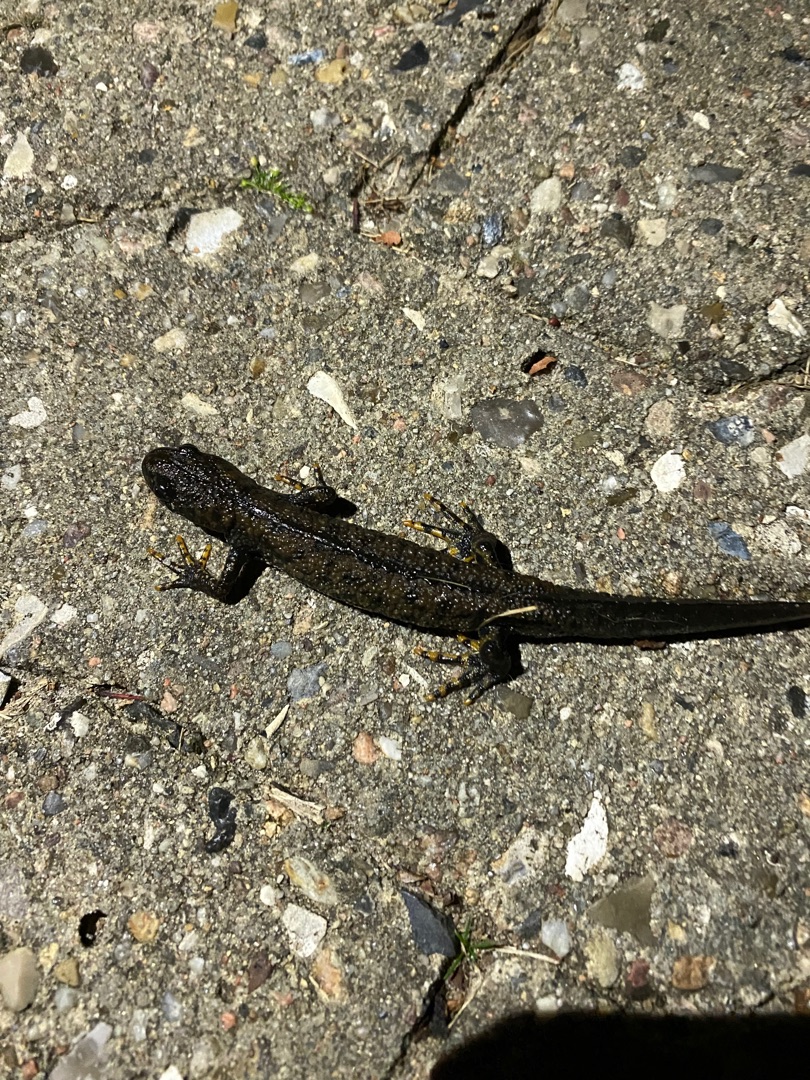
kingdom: Animalia
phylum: Chordata
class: Amphibia
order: Caudata
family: Salamandridae
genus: Triturus
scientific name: Triturus cristatus
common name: Stor vandsalamander
